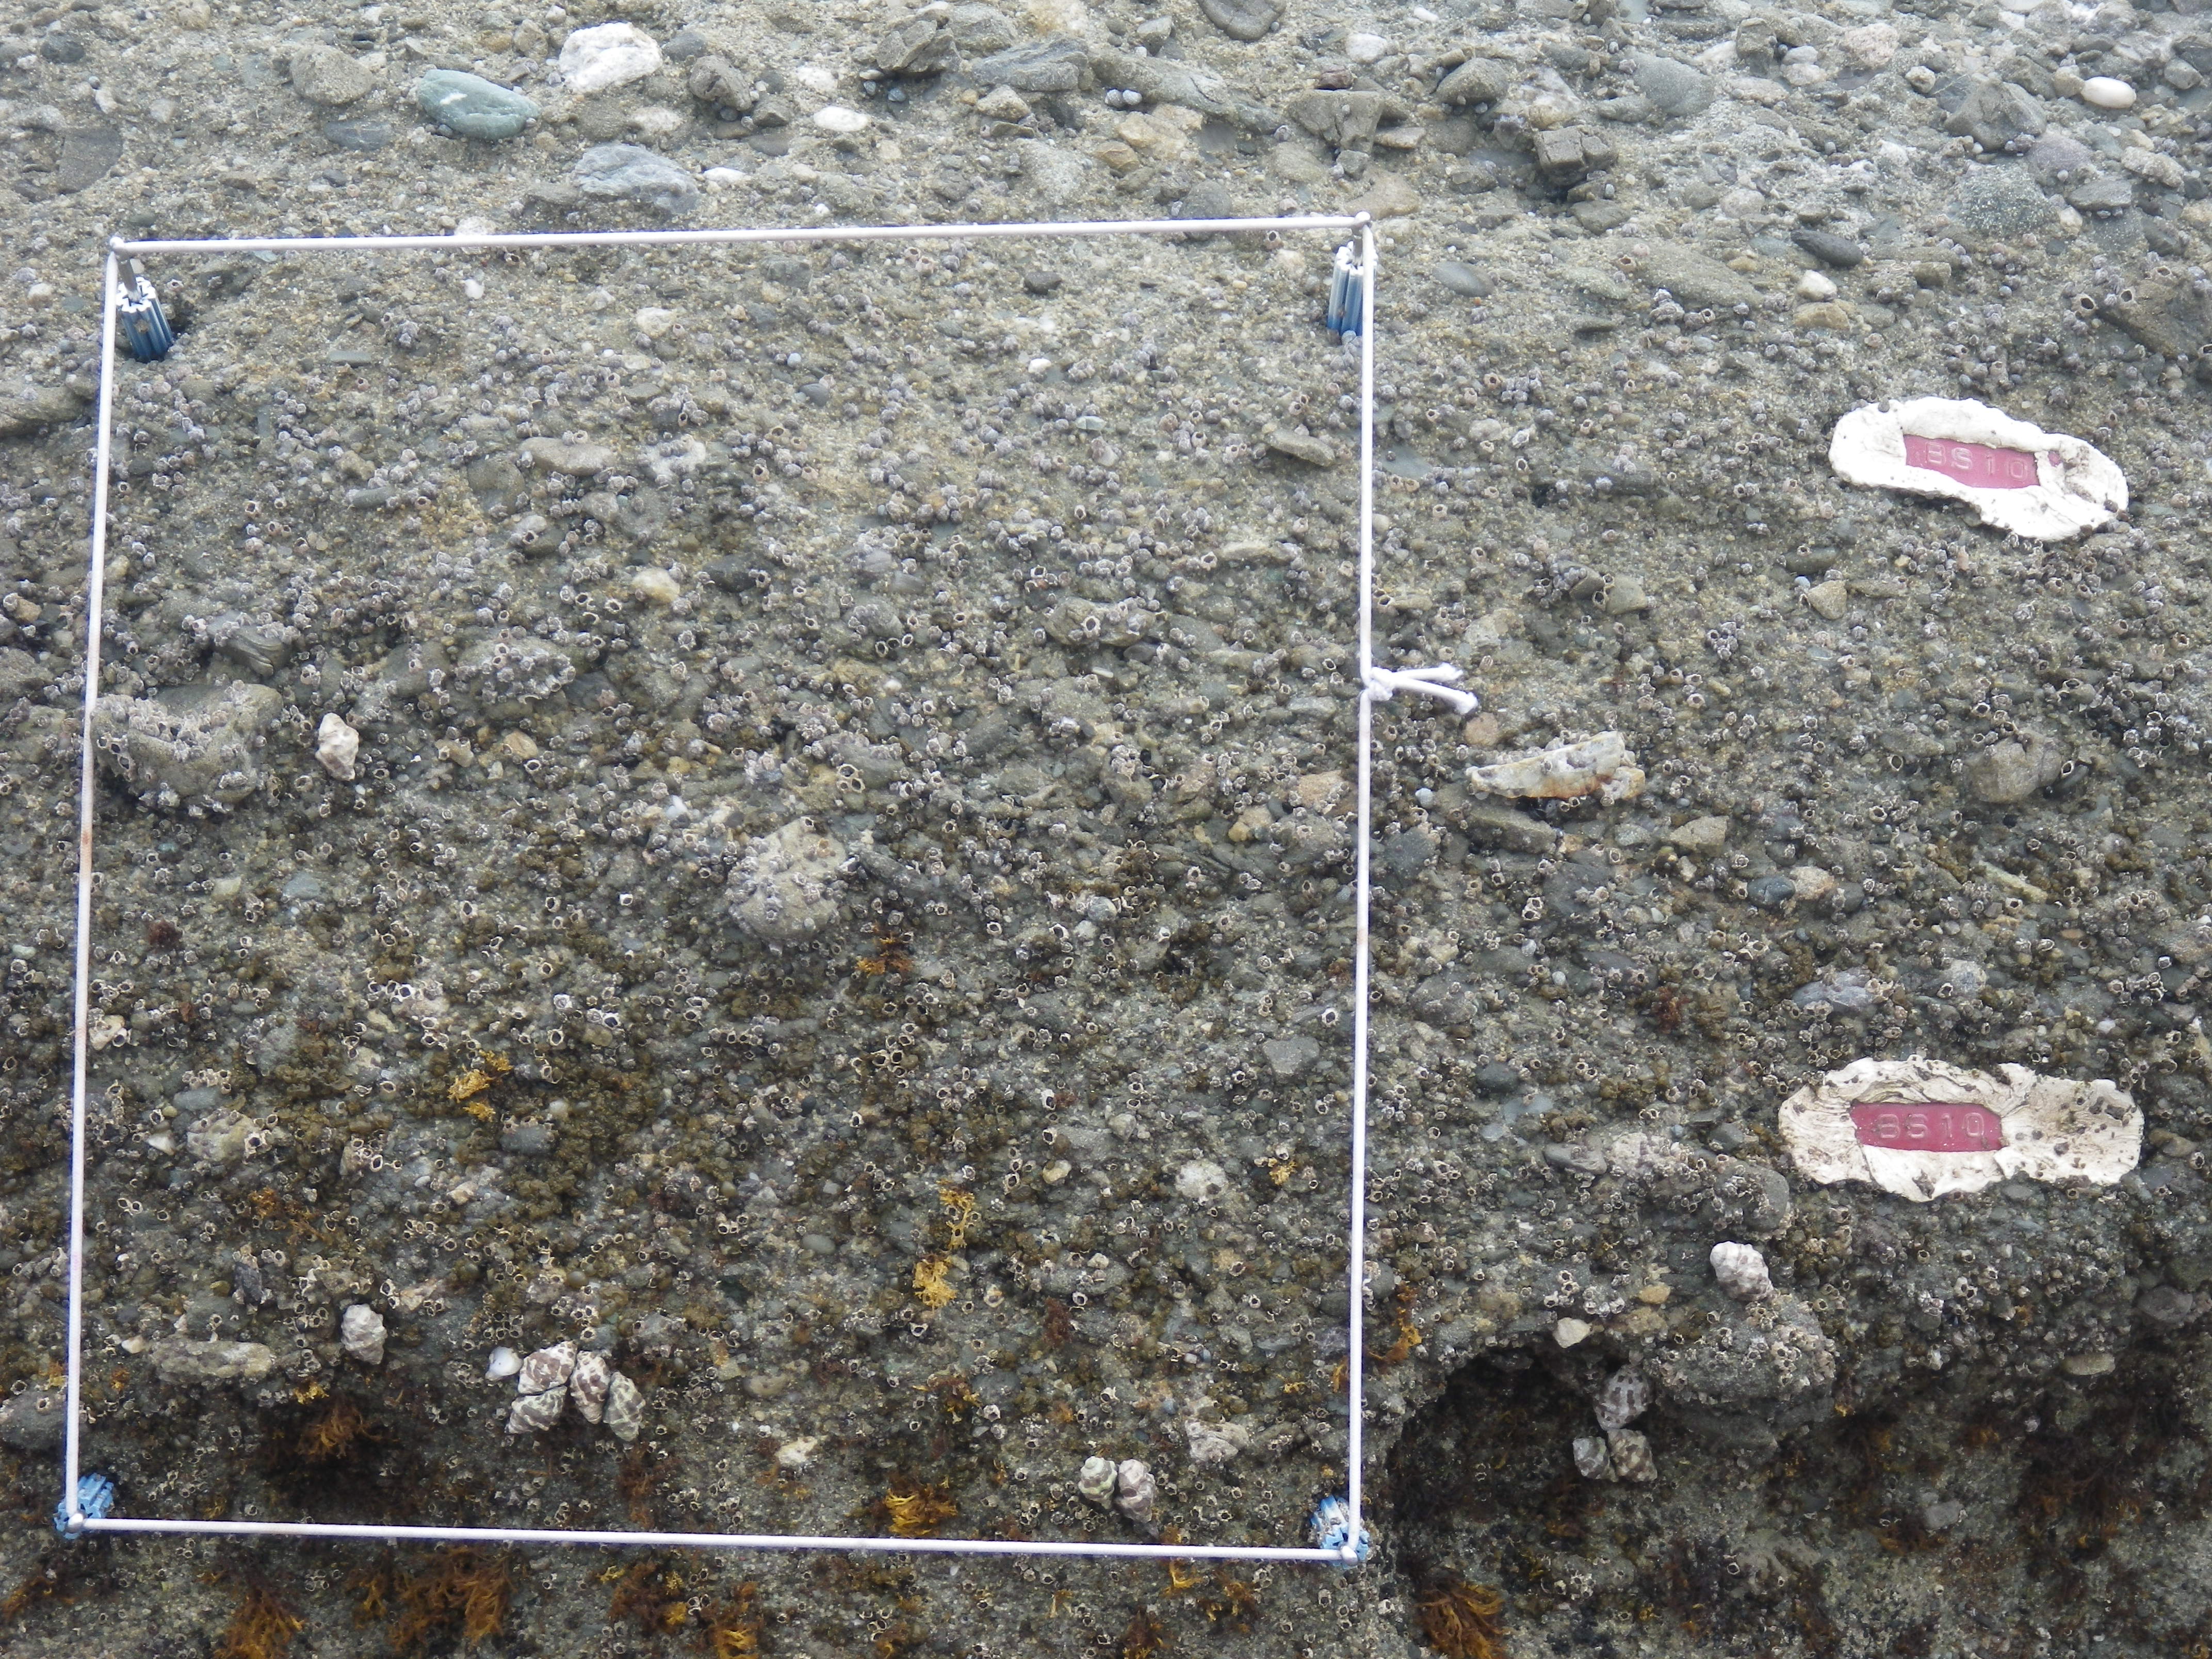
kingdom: Animalia
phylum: Arthropoda
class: Maxillopoda
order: Sessilia
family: Chthamalidae
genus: Chthamalus
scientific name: Chthamalus challengeri
